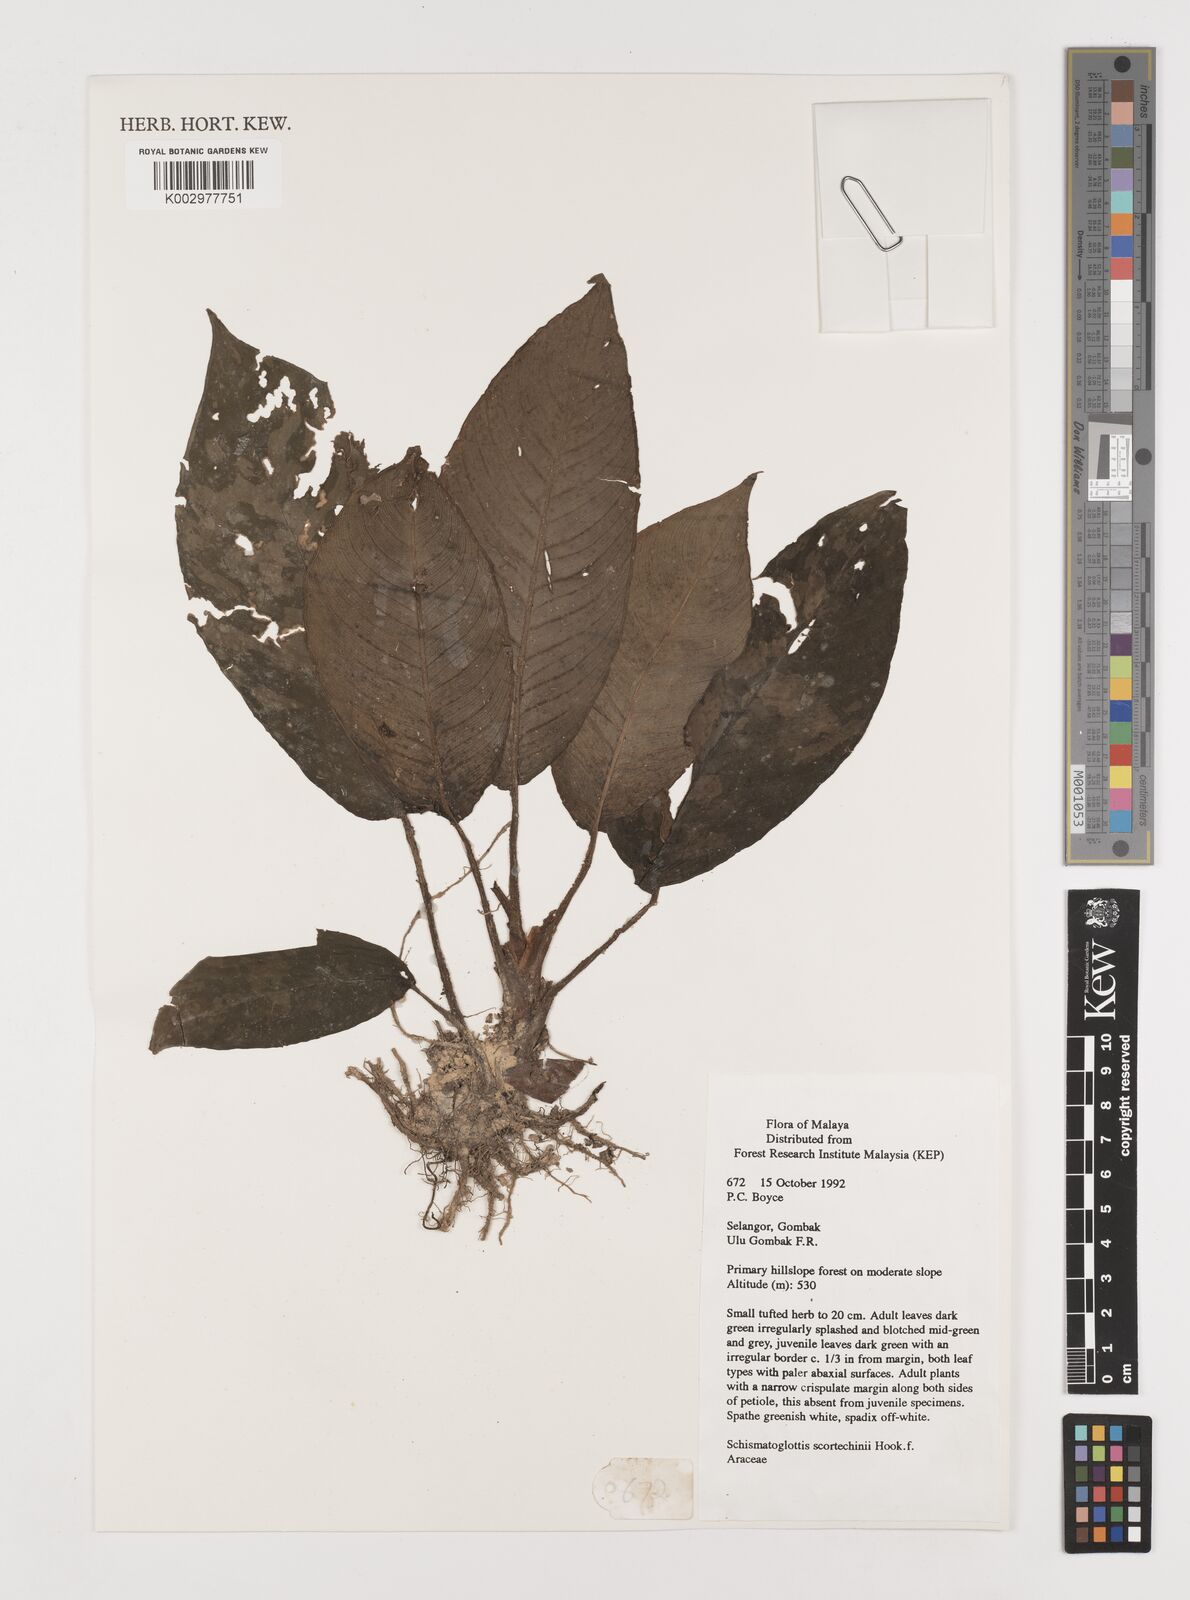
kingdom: Plantae
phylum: Tracheophyta
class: Liliopsida
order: Alismatales
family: Araceae
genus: Schismatoglottis
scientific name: Schismatoglottis scortechinii
